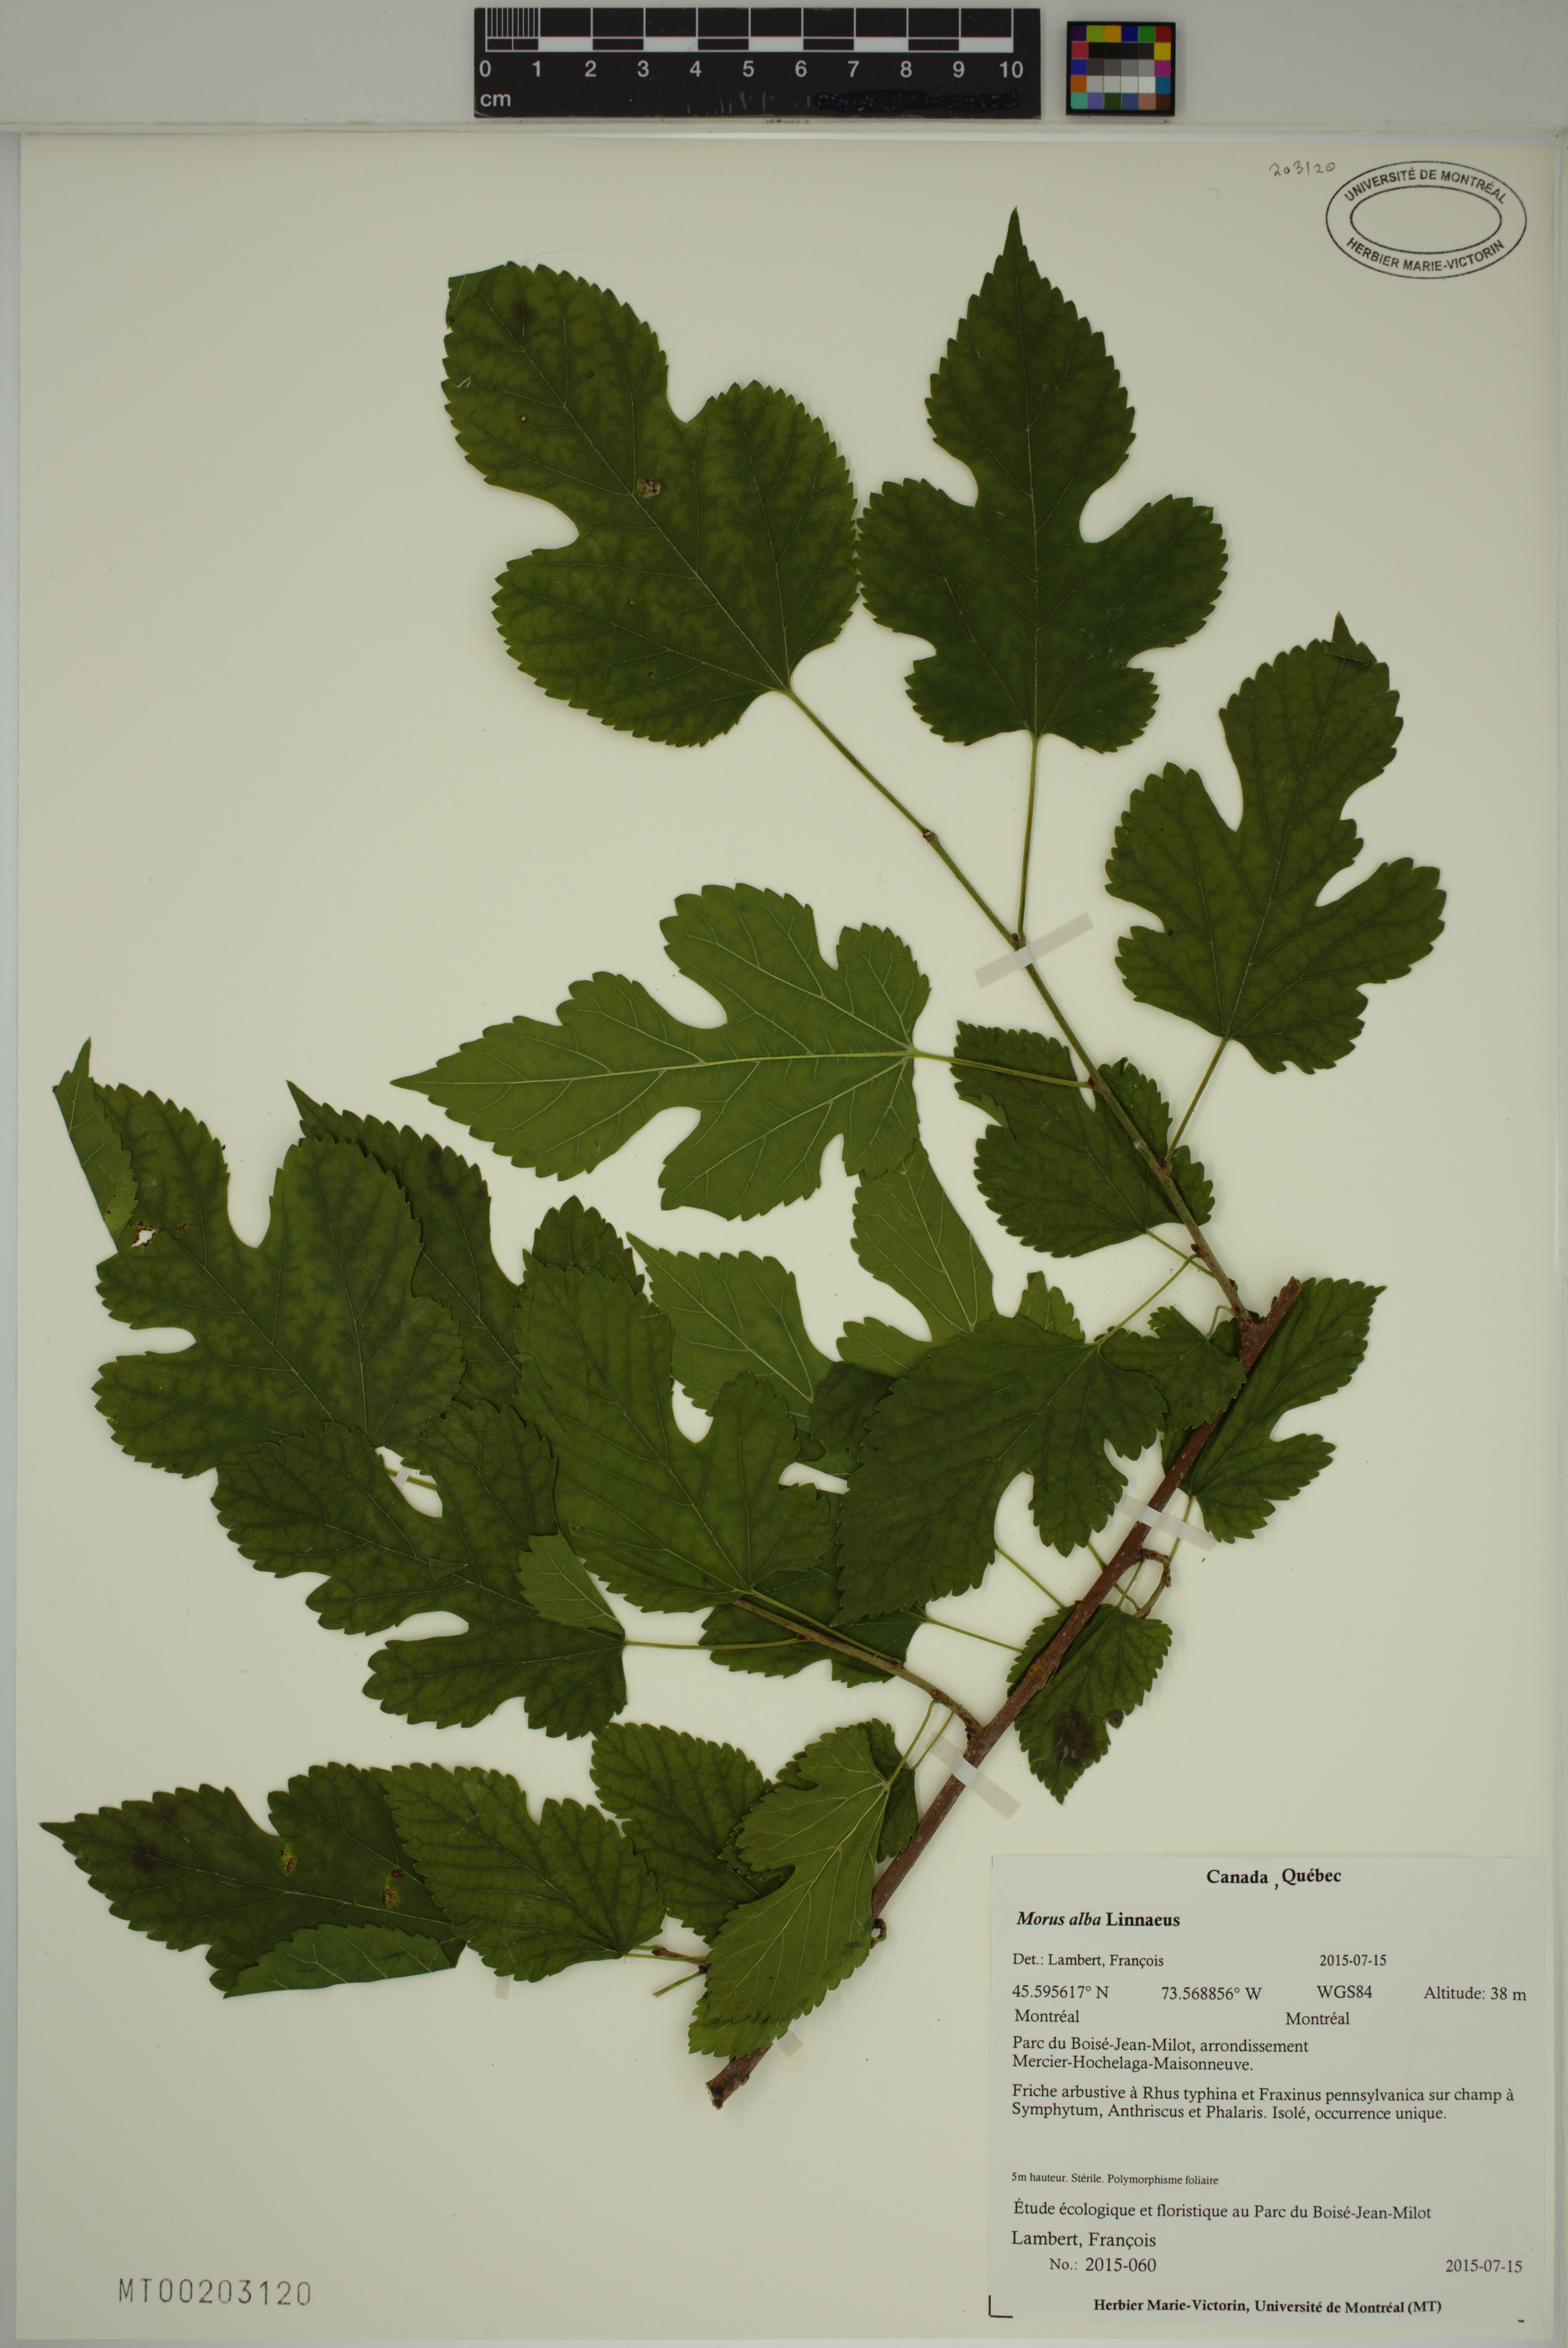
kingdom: Plantae
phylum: Tracheophyta
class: Magnoliopsida
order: Rosales
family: Moraceae
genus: Morus
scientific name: Morus alba
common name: White mulberry
